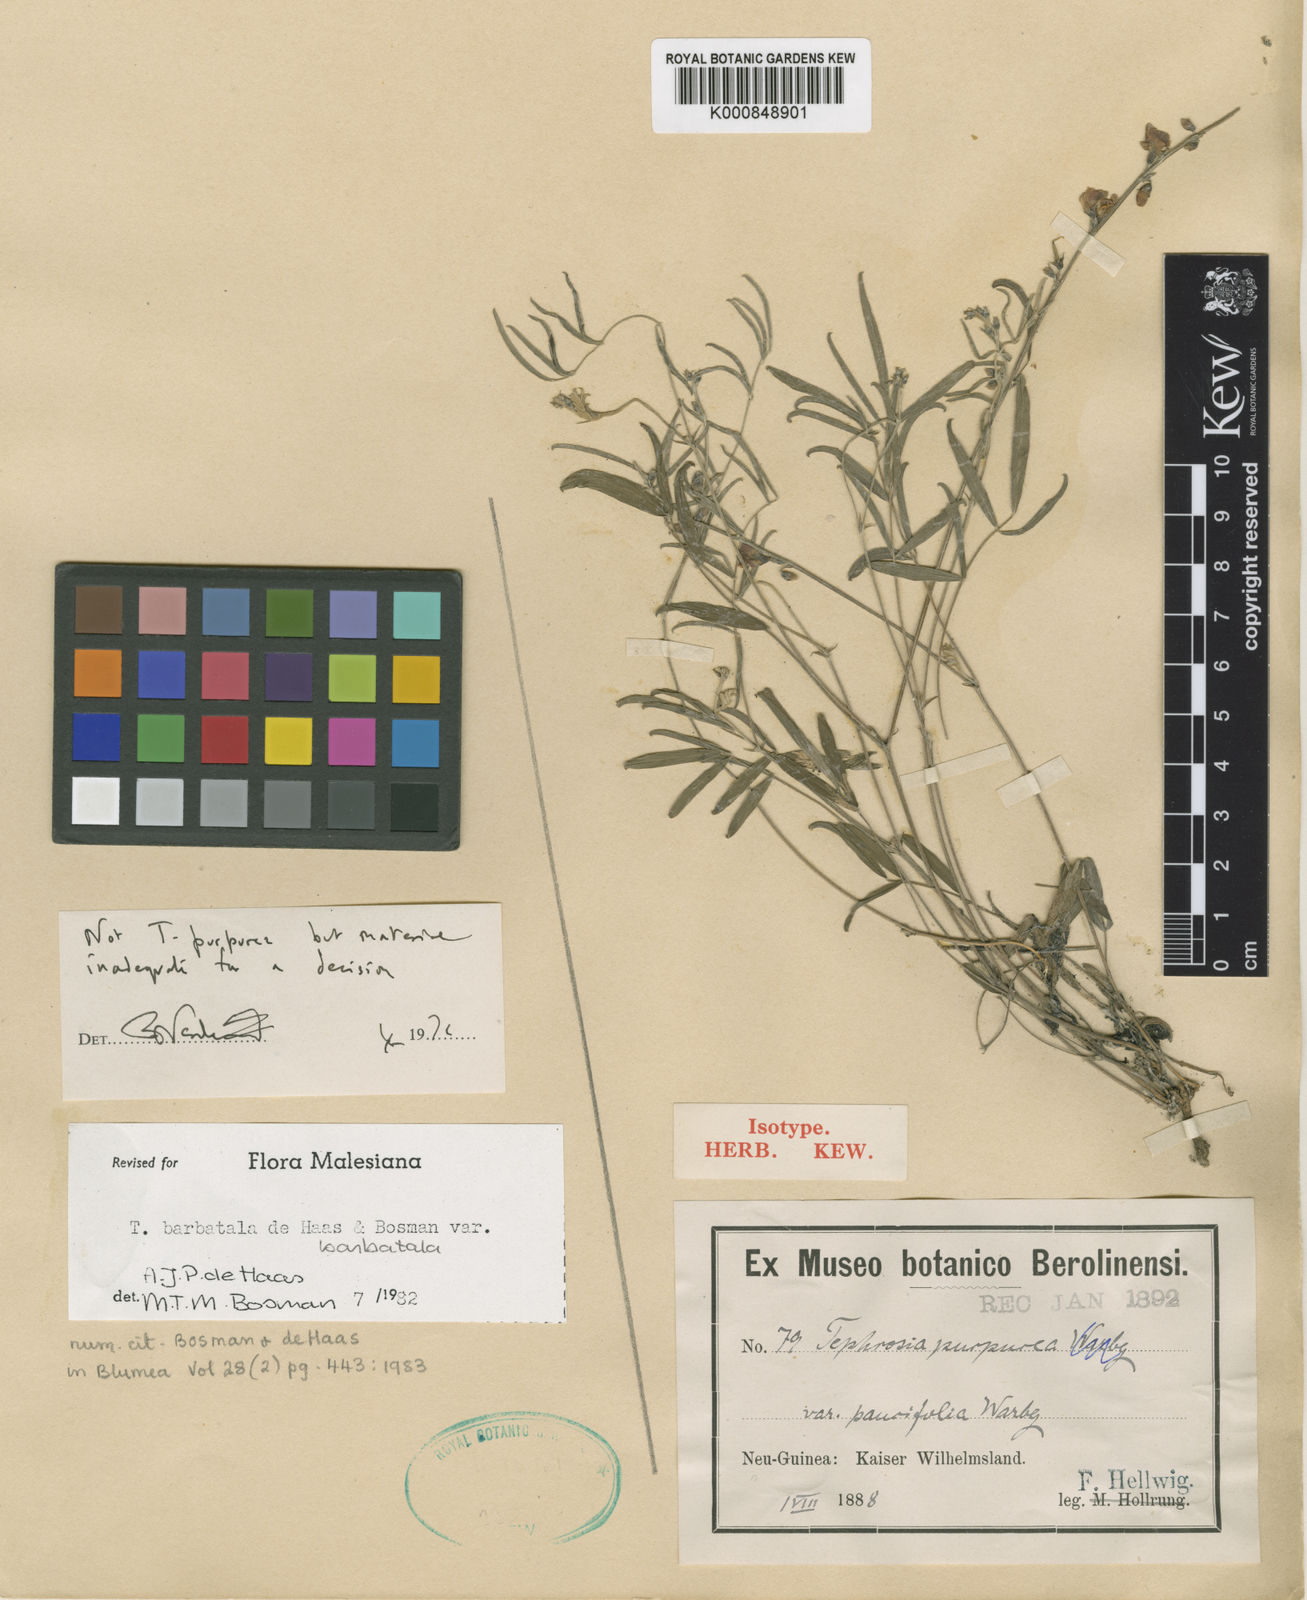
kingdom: Plantae
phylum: Tracheophyta
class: Magnoliopsida
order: Fabales
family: Fabaceae
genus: Tephrosia
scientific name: Tephrosia barbatala
